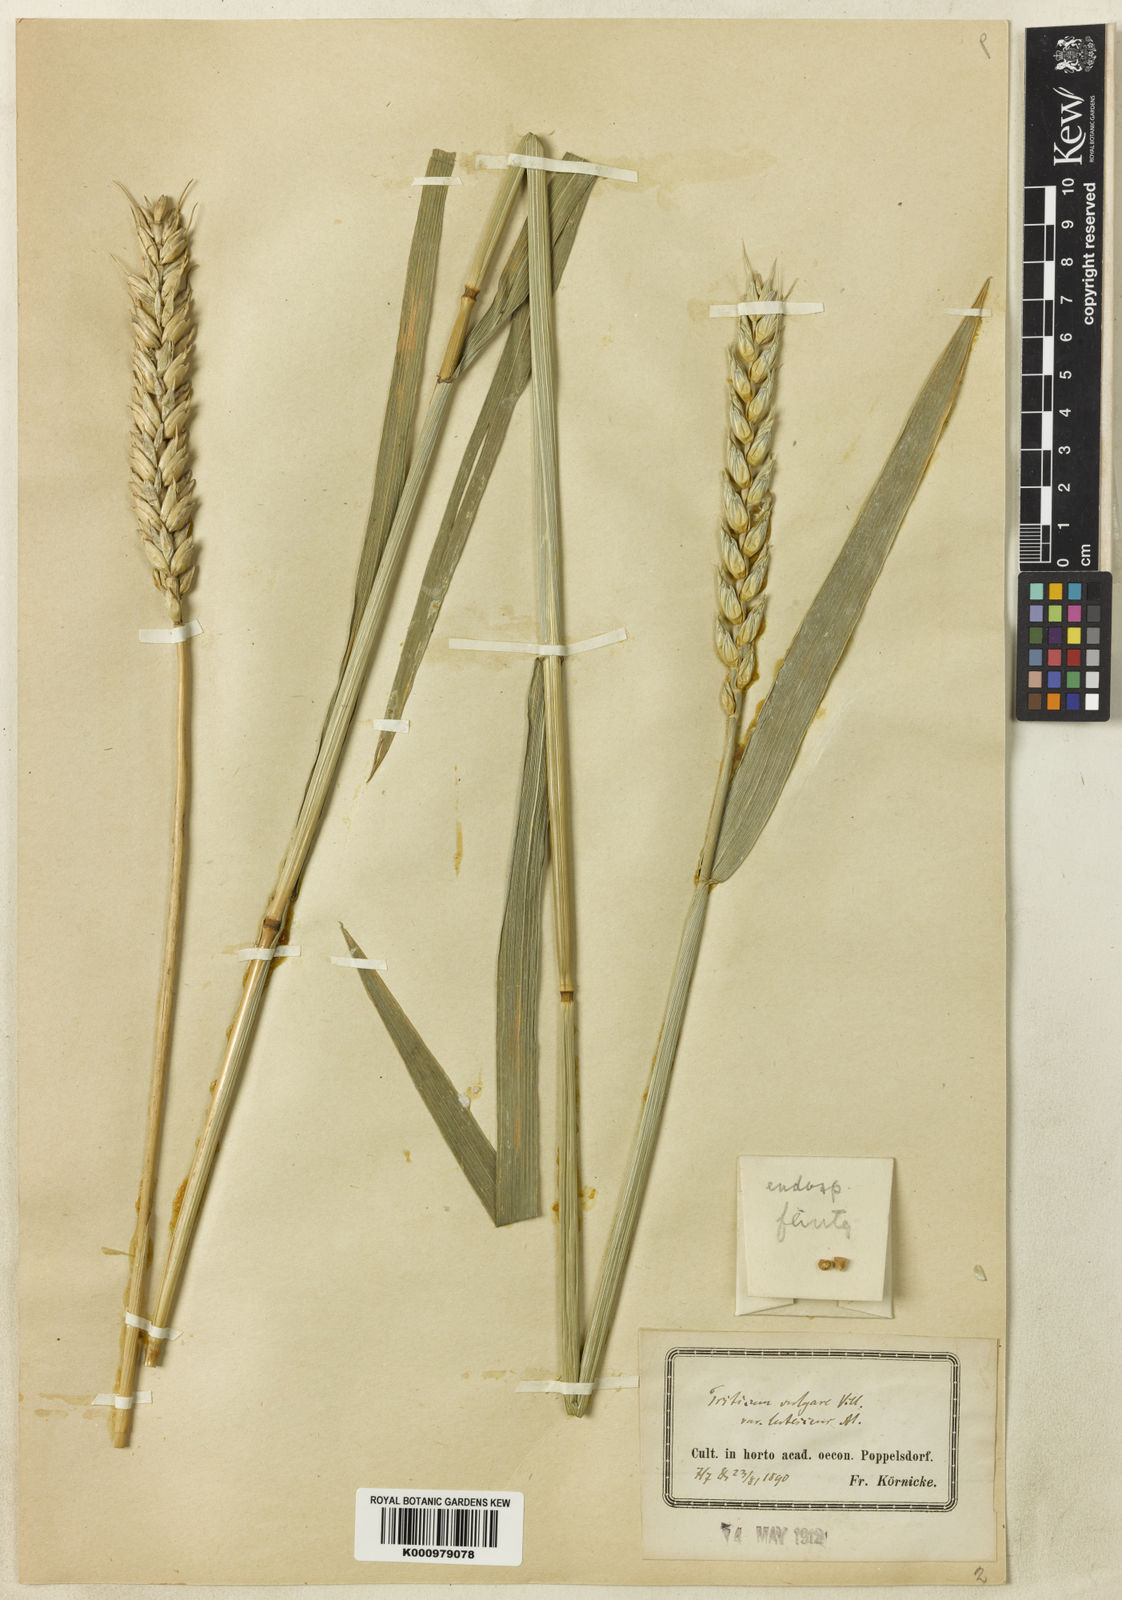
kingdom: Plantae
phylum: Tracheophyta
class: Liliopsida
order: Poales
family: Poaceae
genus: Triticum
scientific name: Triticum aestivum
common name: Common wheat
